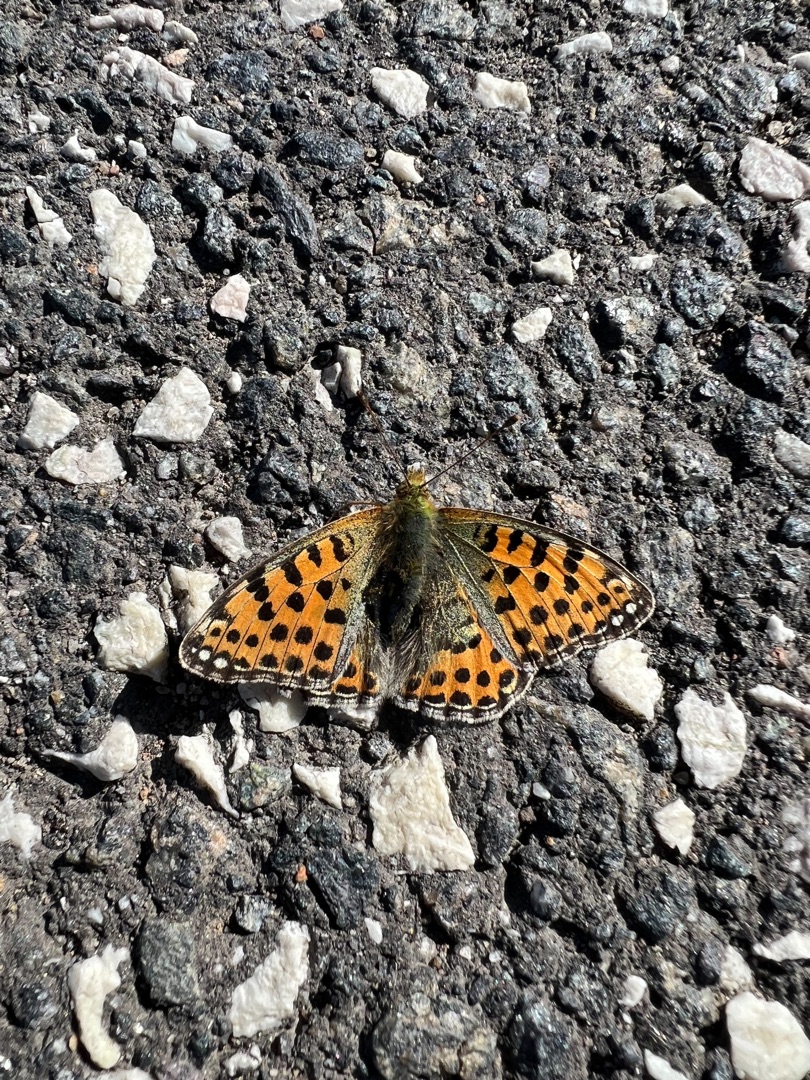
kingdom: Animalia
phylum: Arthropoda
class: Insecta
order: Lepidoptera
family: Nymphalidae
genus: Issoria
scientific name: Issoria lathonia
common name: Storplettet perlemorsommerfugl
